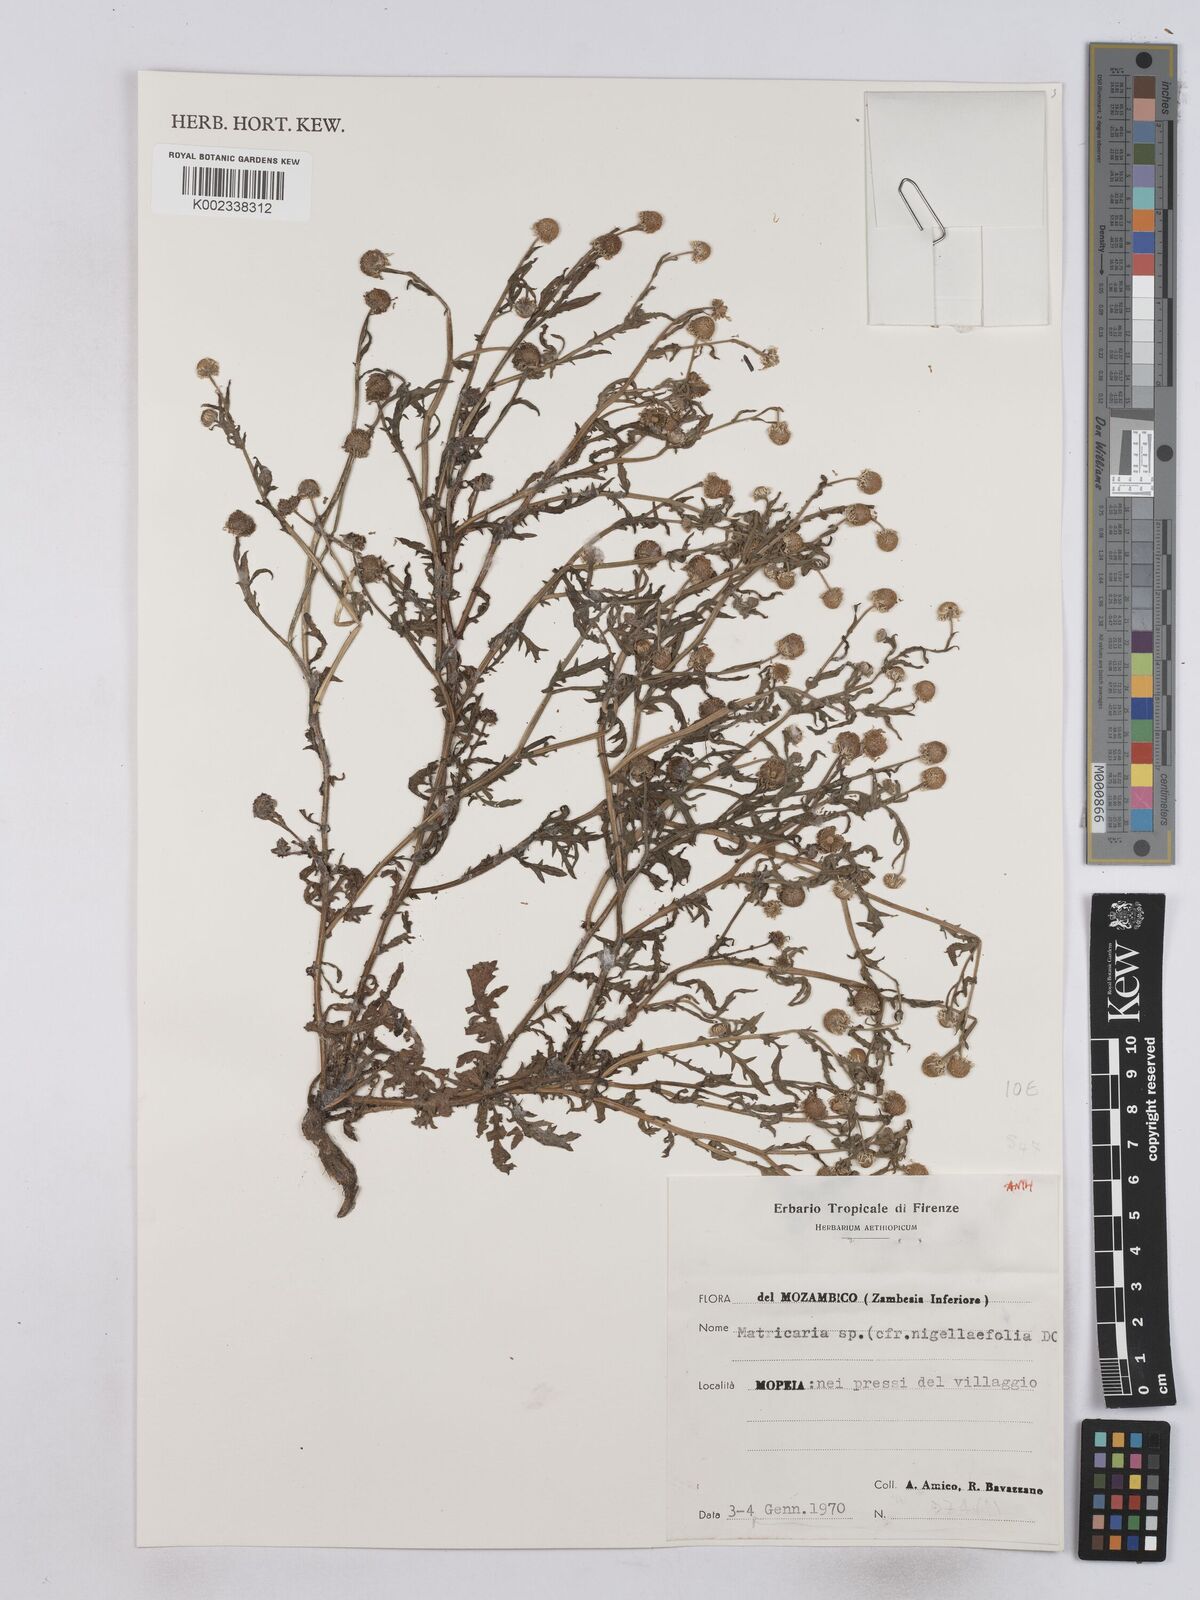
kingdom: Plantae
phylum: Tracheophyta
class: Magnoliopsida
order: Asterales
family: Asteraceae
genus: Matricaria
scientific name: Matricaria
